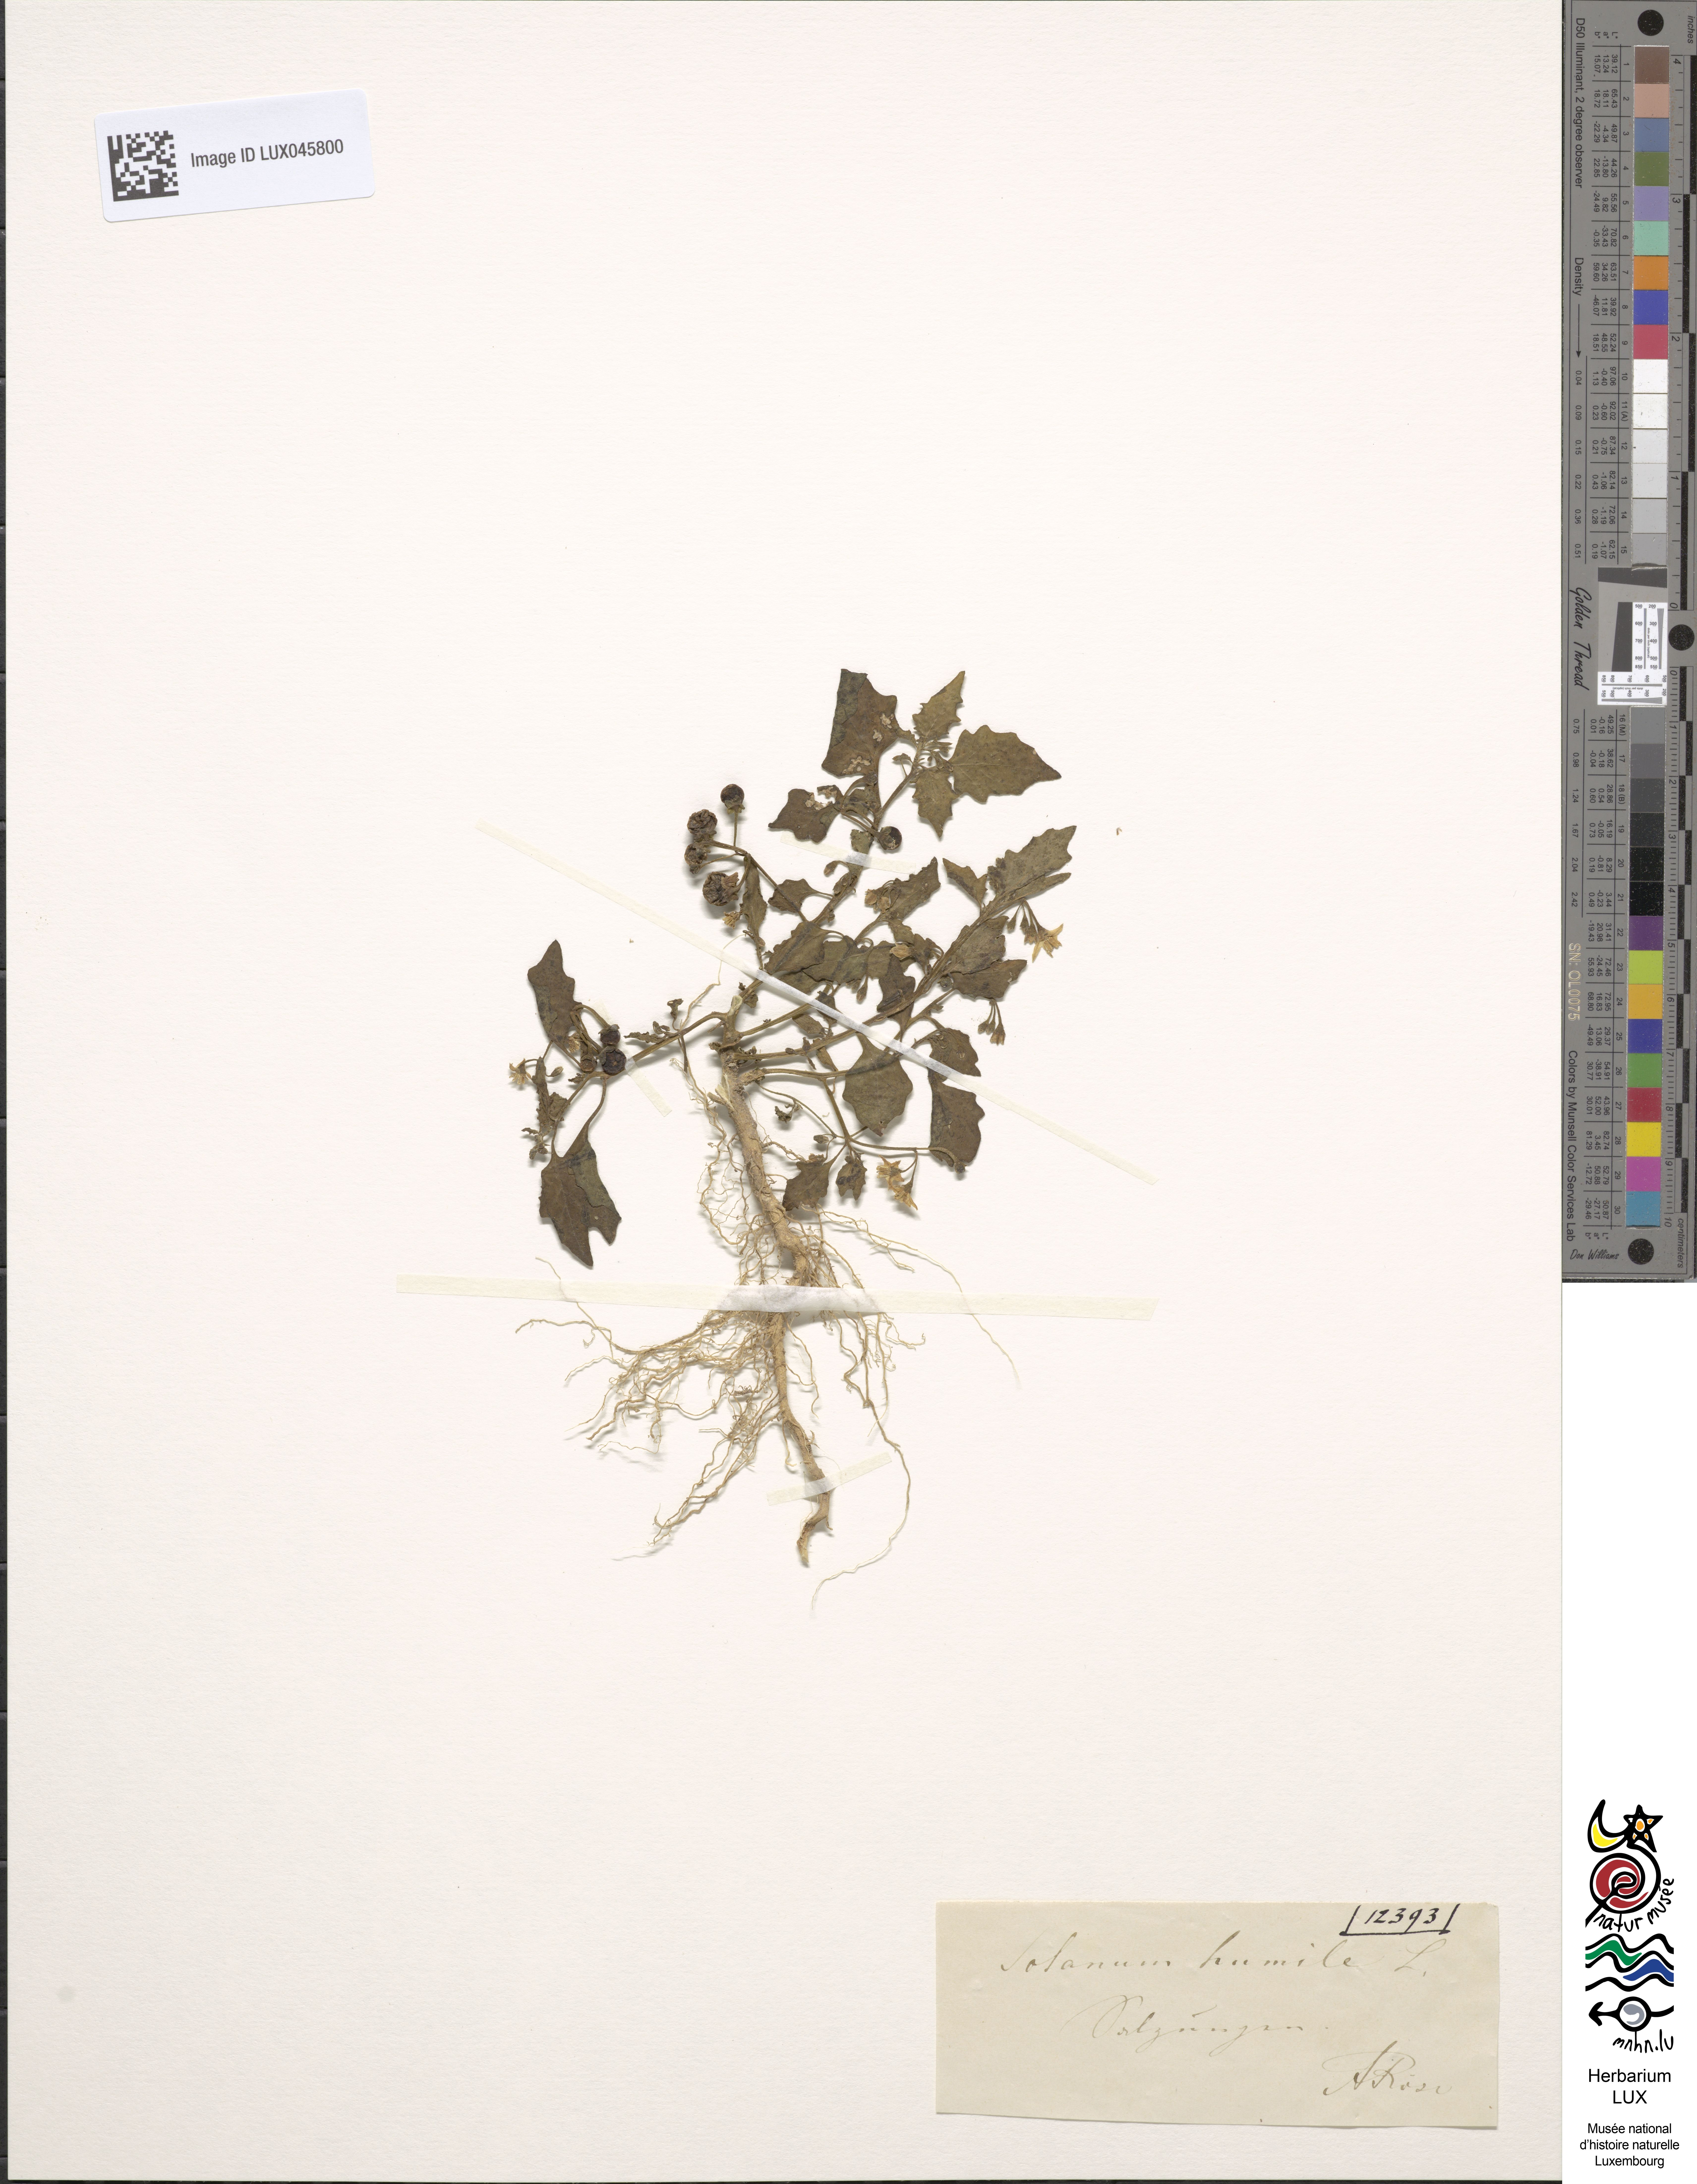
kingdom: Plantae
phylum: Tracheophyta
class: Magnoliopsida
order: Solanales
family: Solanaceae
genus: Solanum
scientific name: Solanum nigrum
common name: Black nightshade
